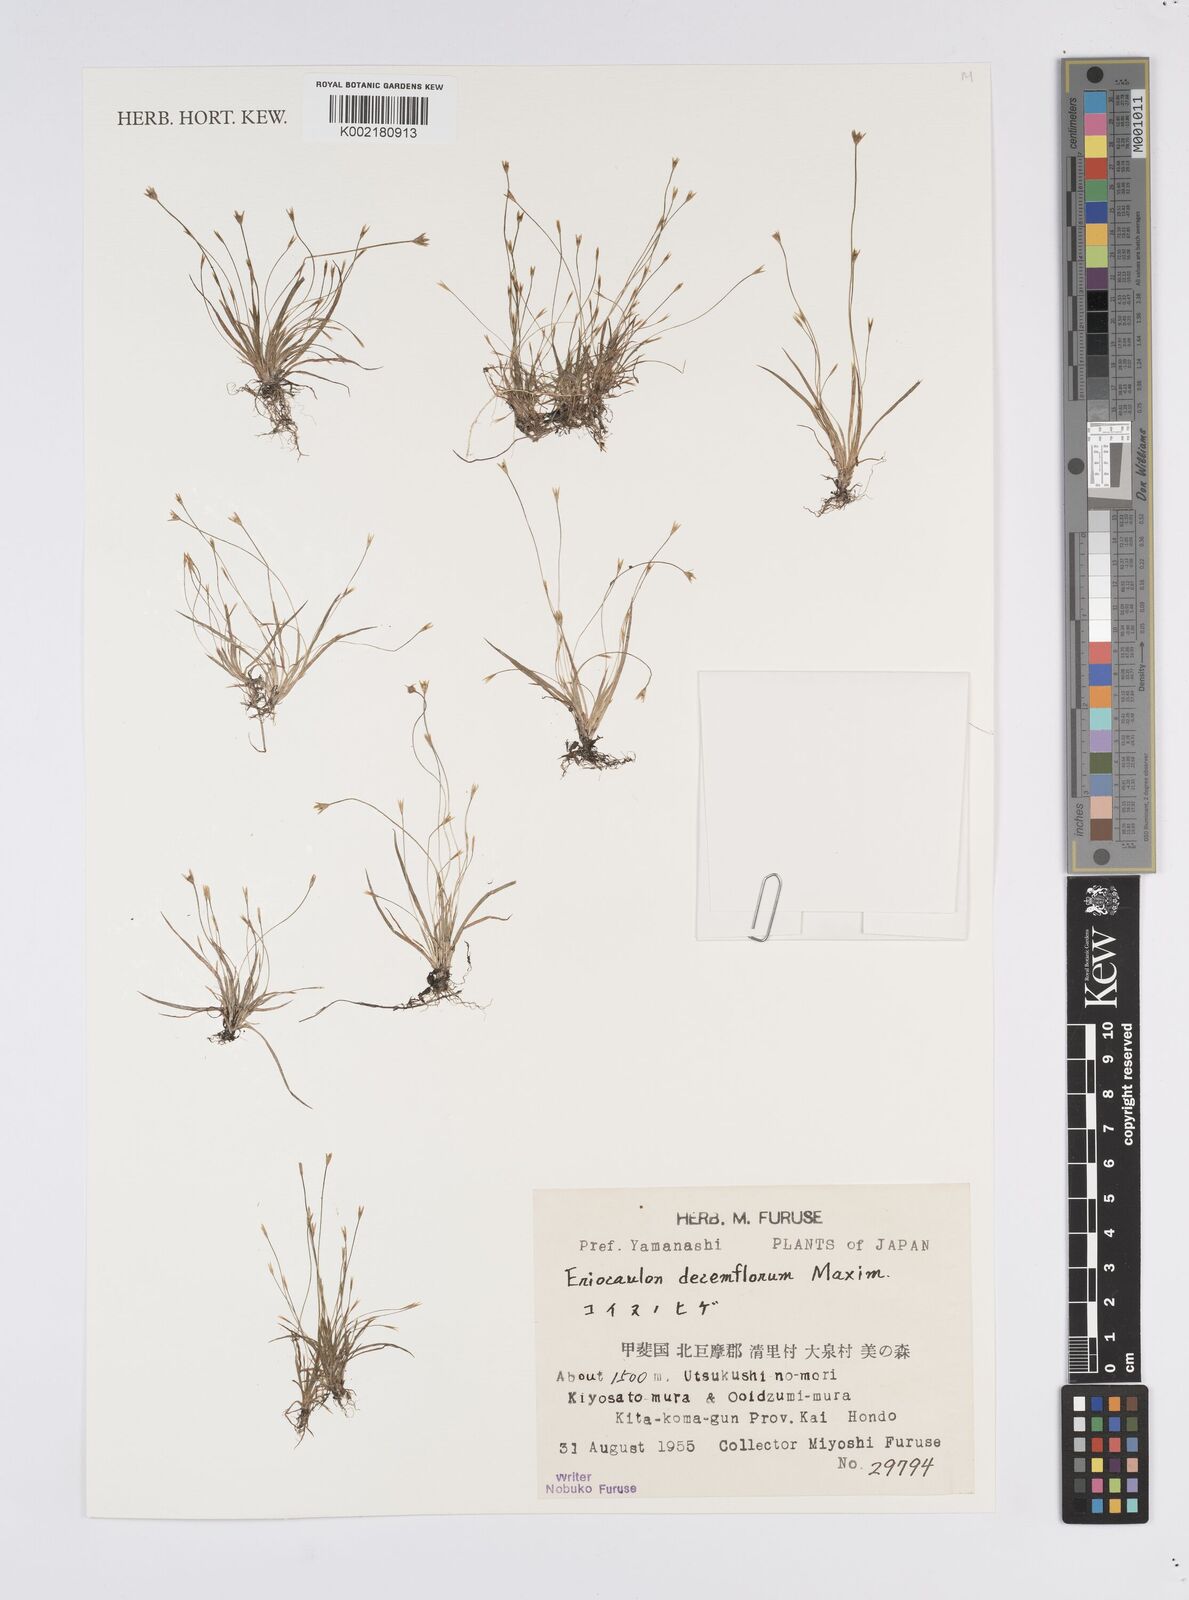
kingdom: Plantae
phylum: Tracheophyta
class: Liliopsida
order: Poales
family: Eriocaulaceae
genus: Eriocaulon
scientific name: Eriocaulon decemflorum
